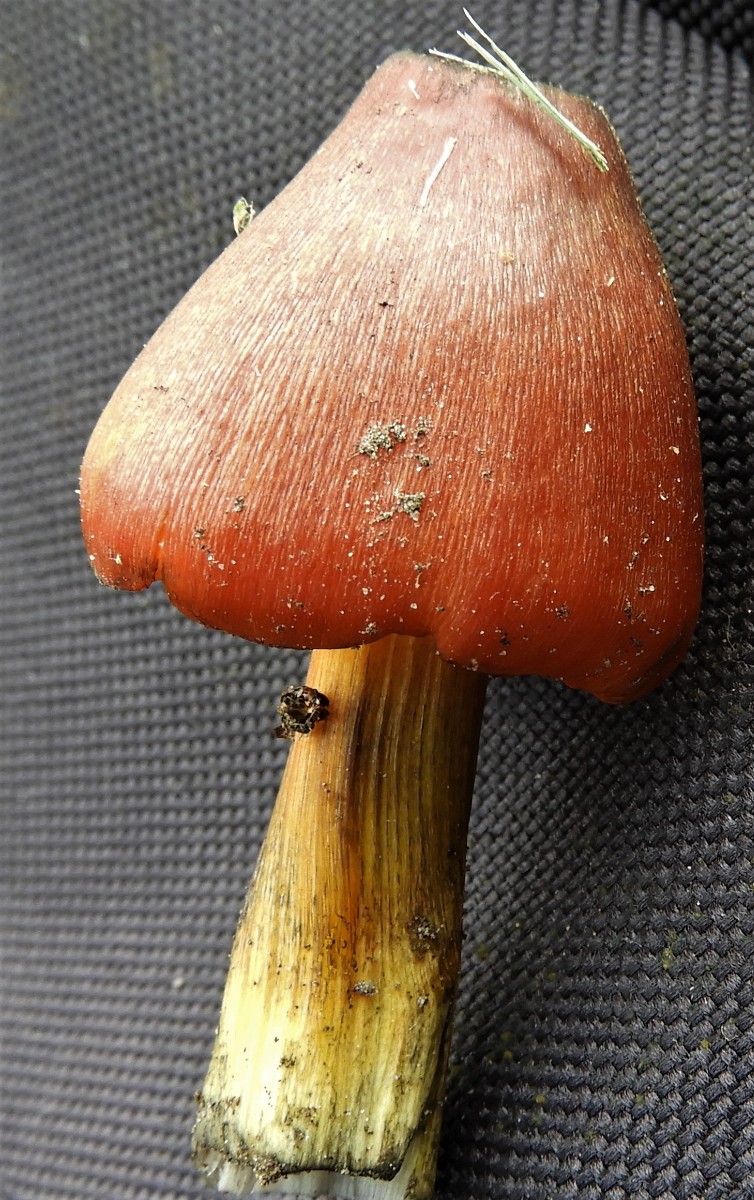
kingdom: Fungi
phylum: Basidiomycota
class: Agaricomycetes
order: Agaricales
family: Hygrophoraceae
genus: Hygrocybe
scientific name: Hygrocybe conica
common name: kegle-vokshat
